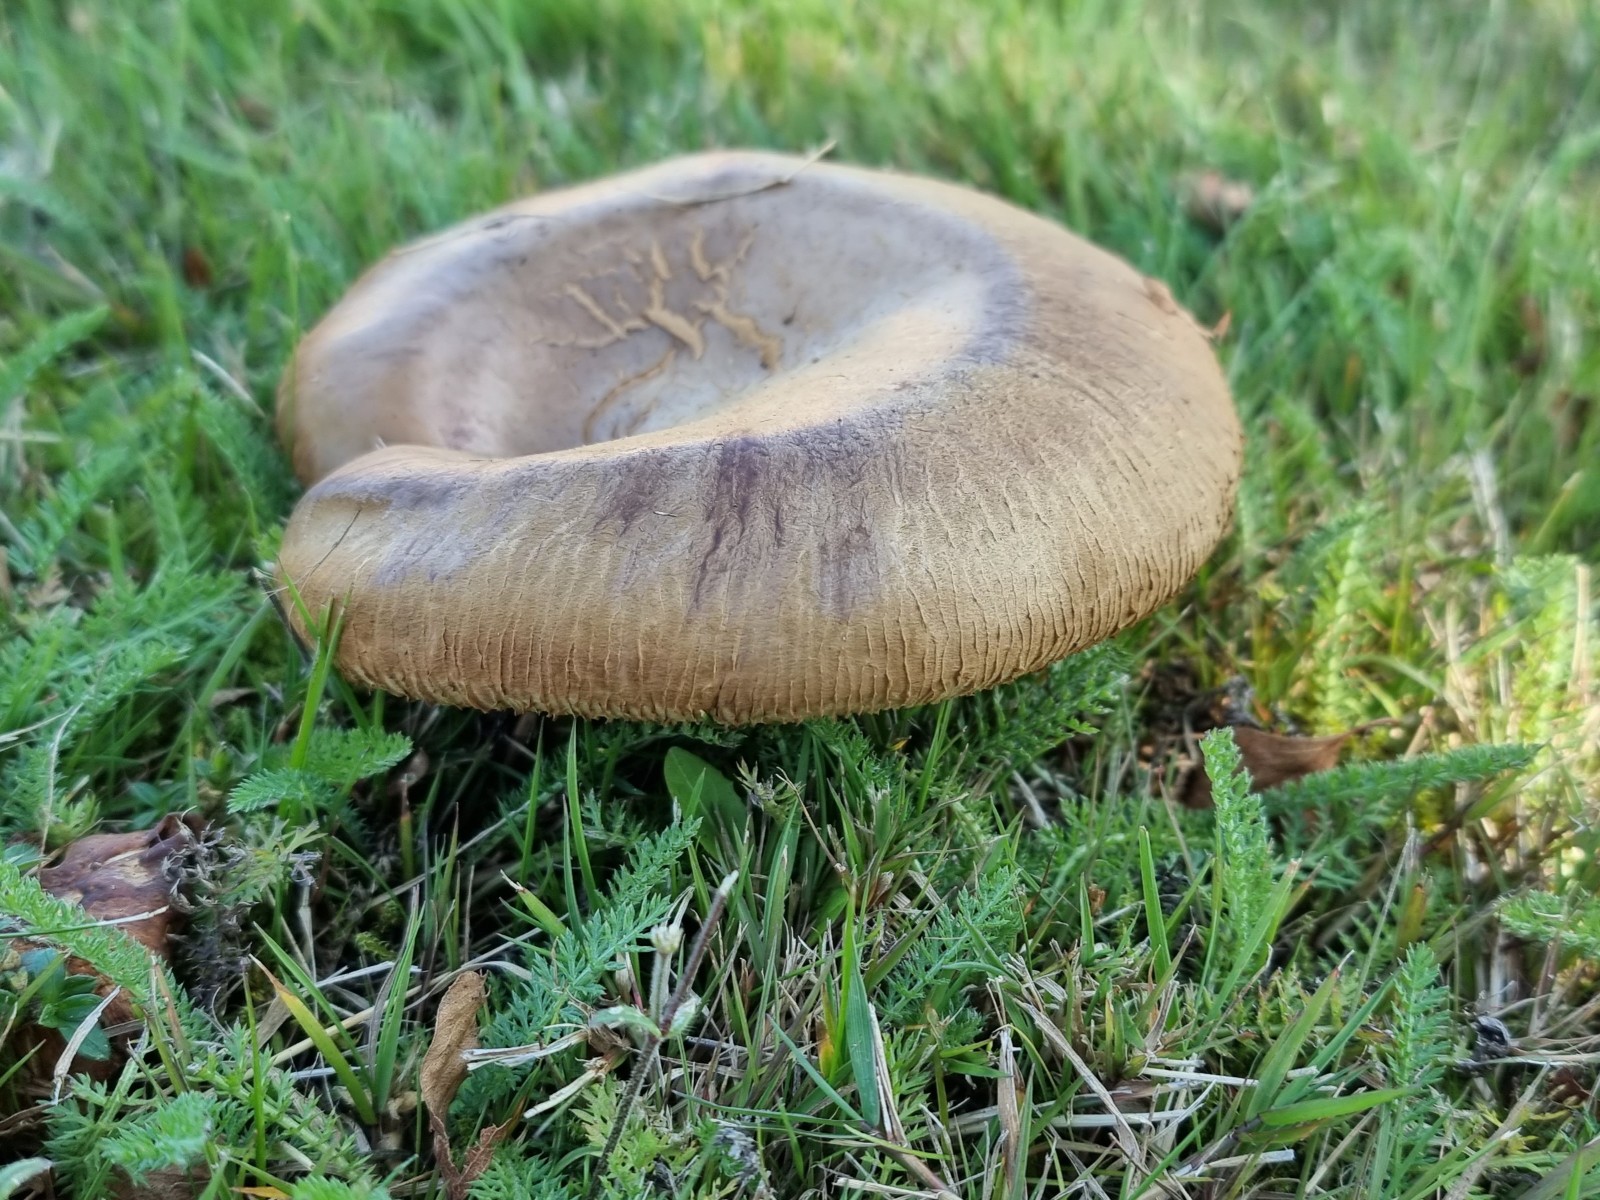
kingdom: Fungi
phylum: Basidiomycota
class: Agaricomycetes
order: Boletales
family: Paxillaceae
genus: Paxillus
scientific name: Paxillus
